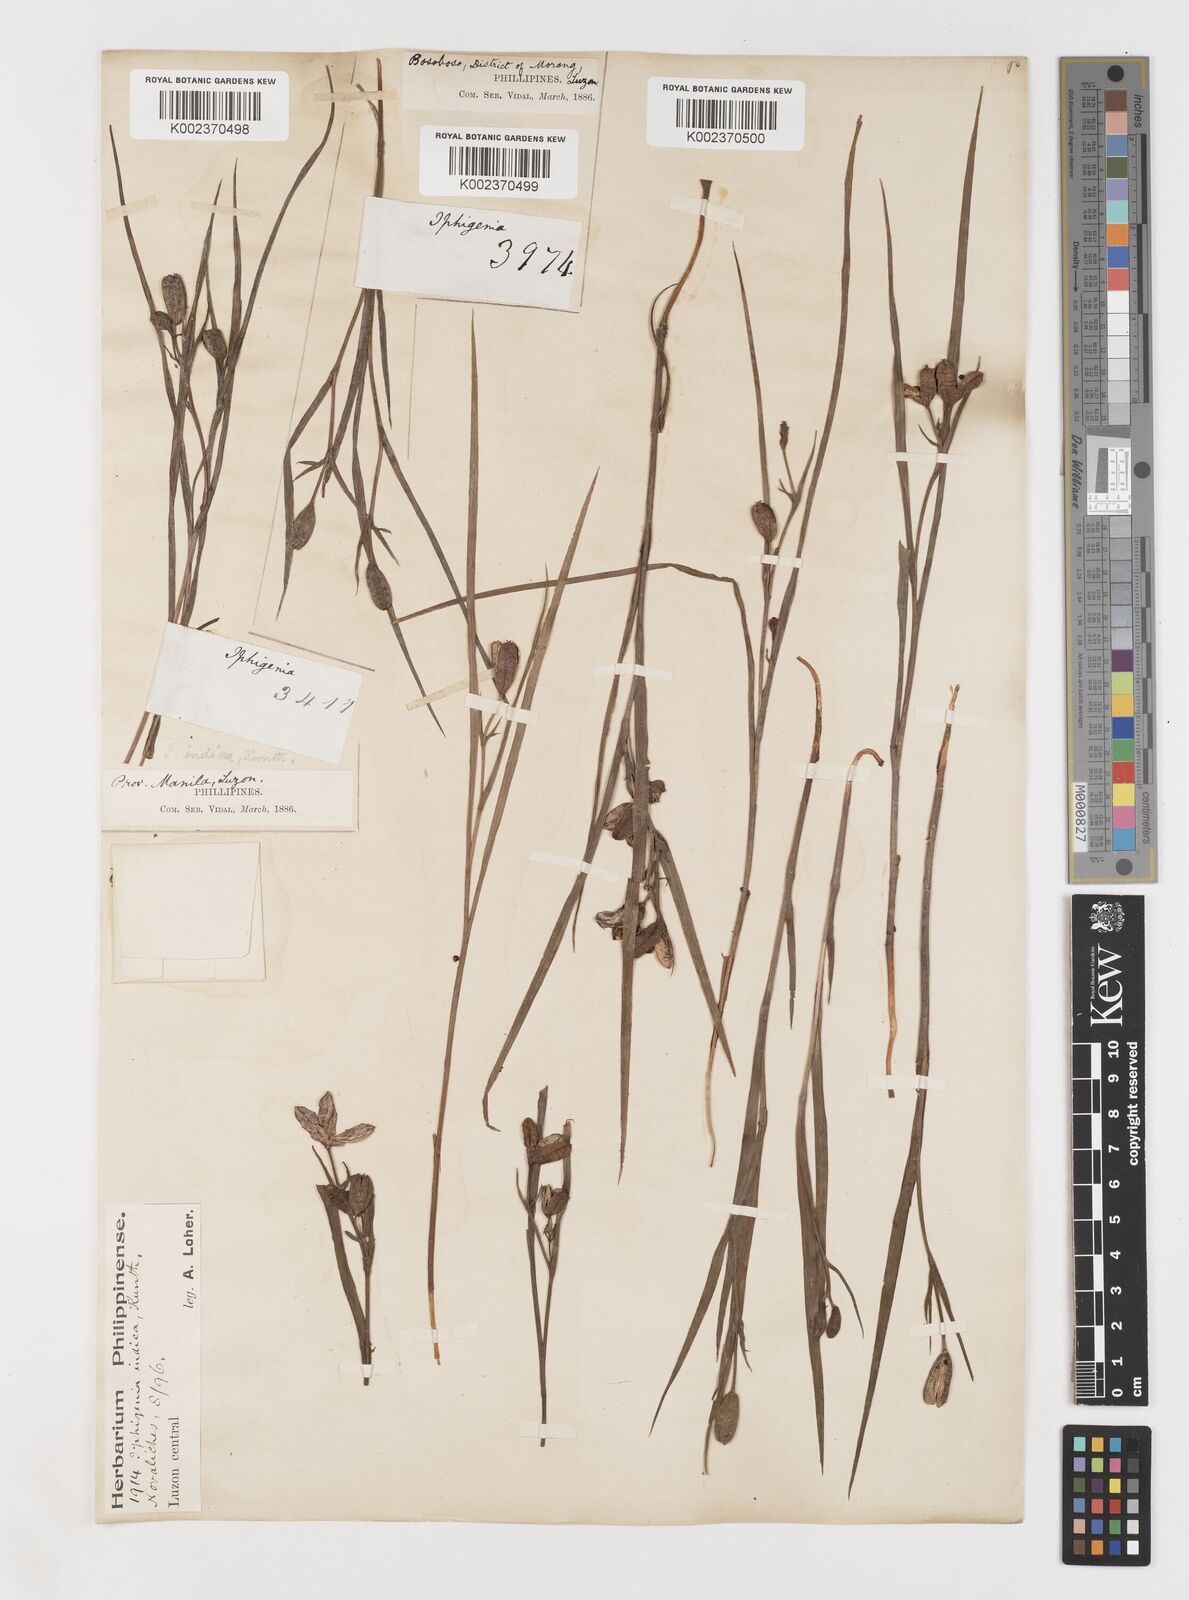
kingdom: Plantae
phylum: Tracheophyta
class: Liliopsida
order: Liliales
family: Colchicaceae
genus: Iphigenia
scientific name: Iphigenia indica
